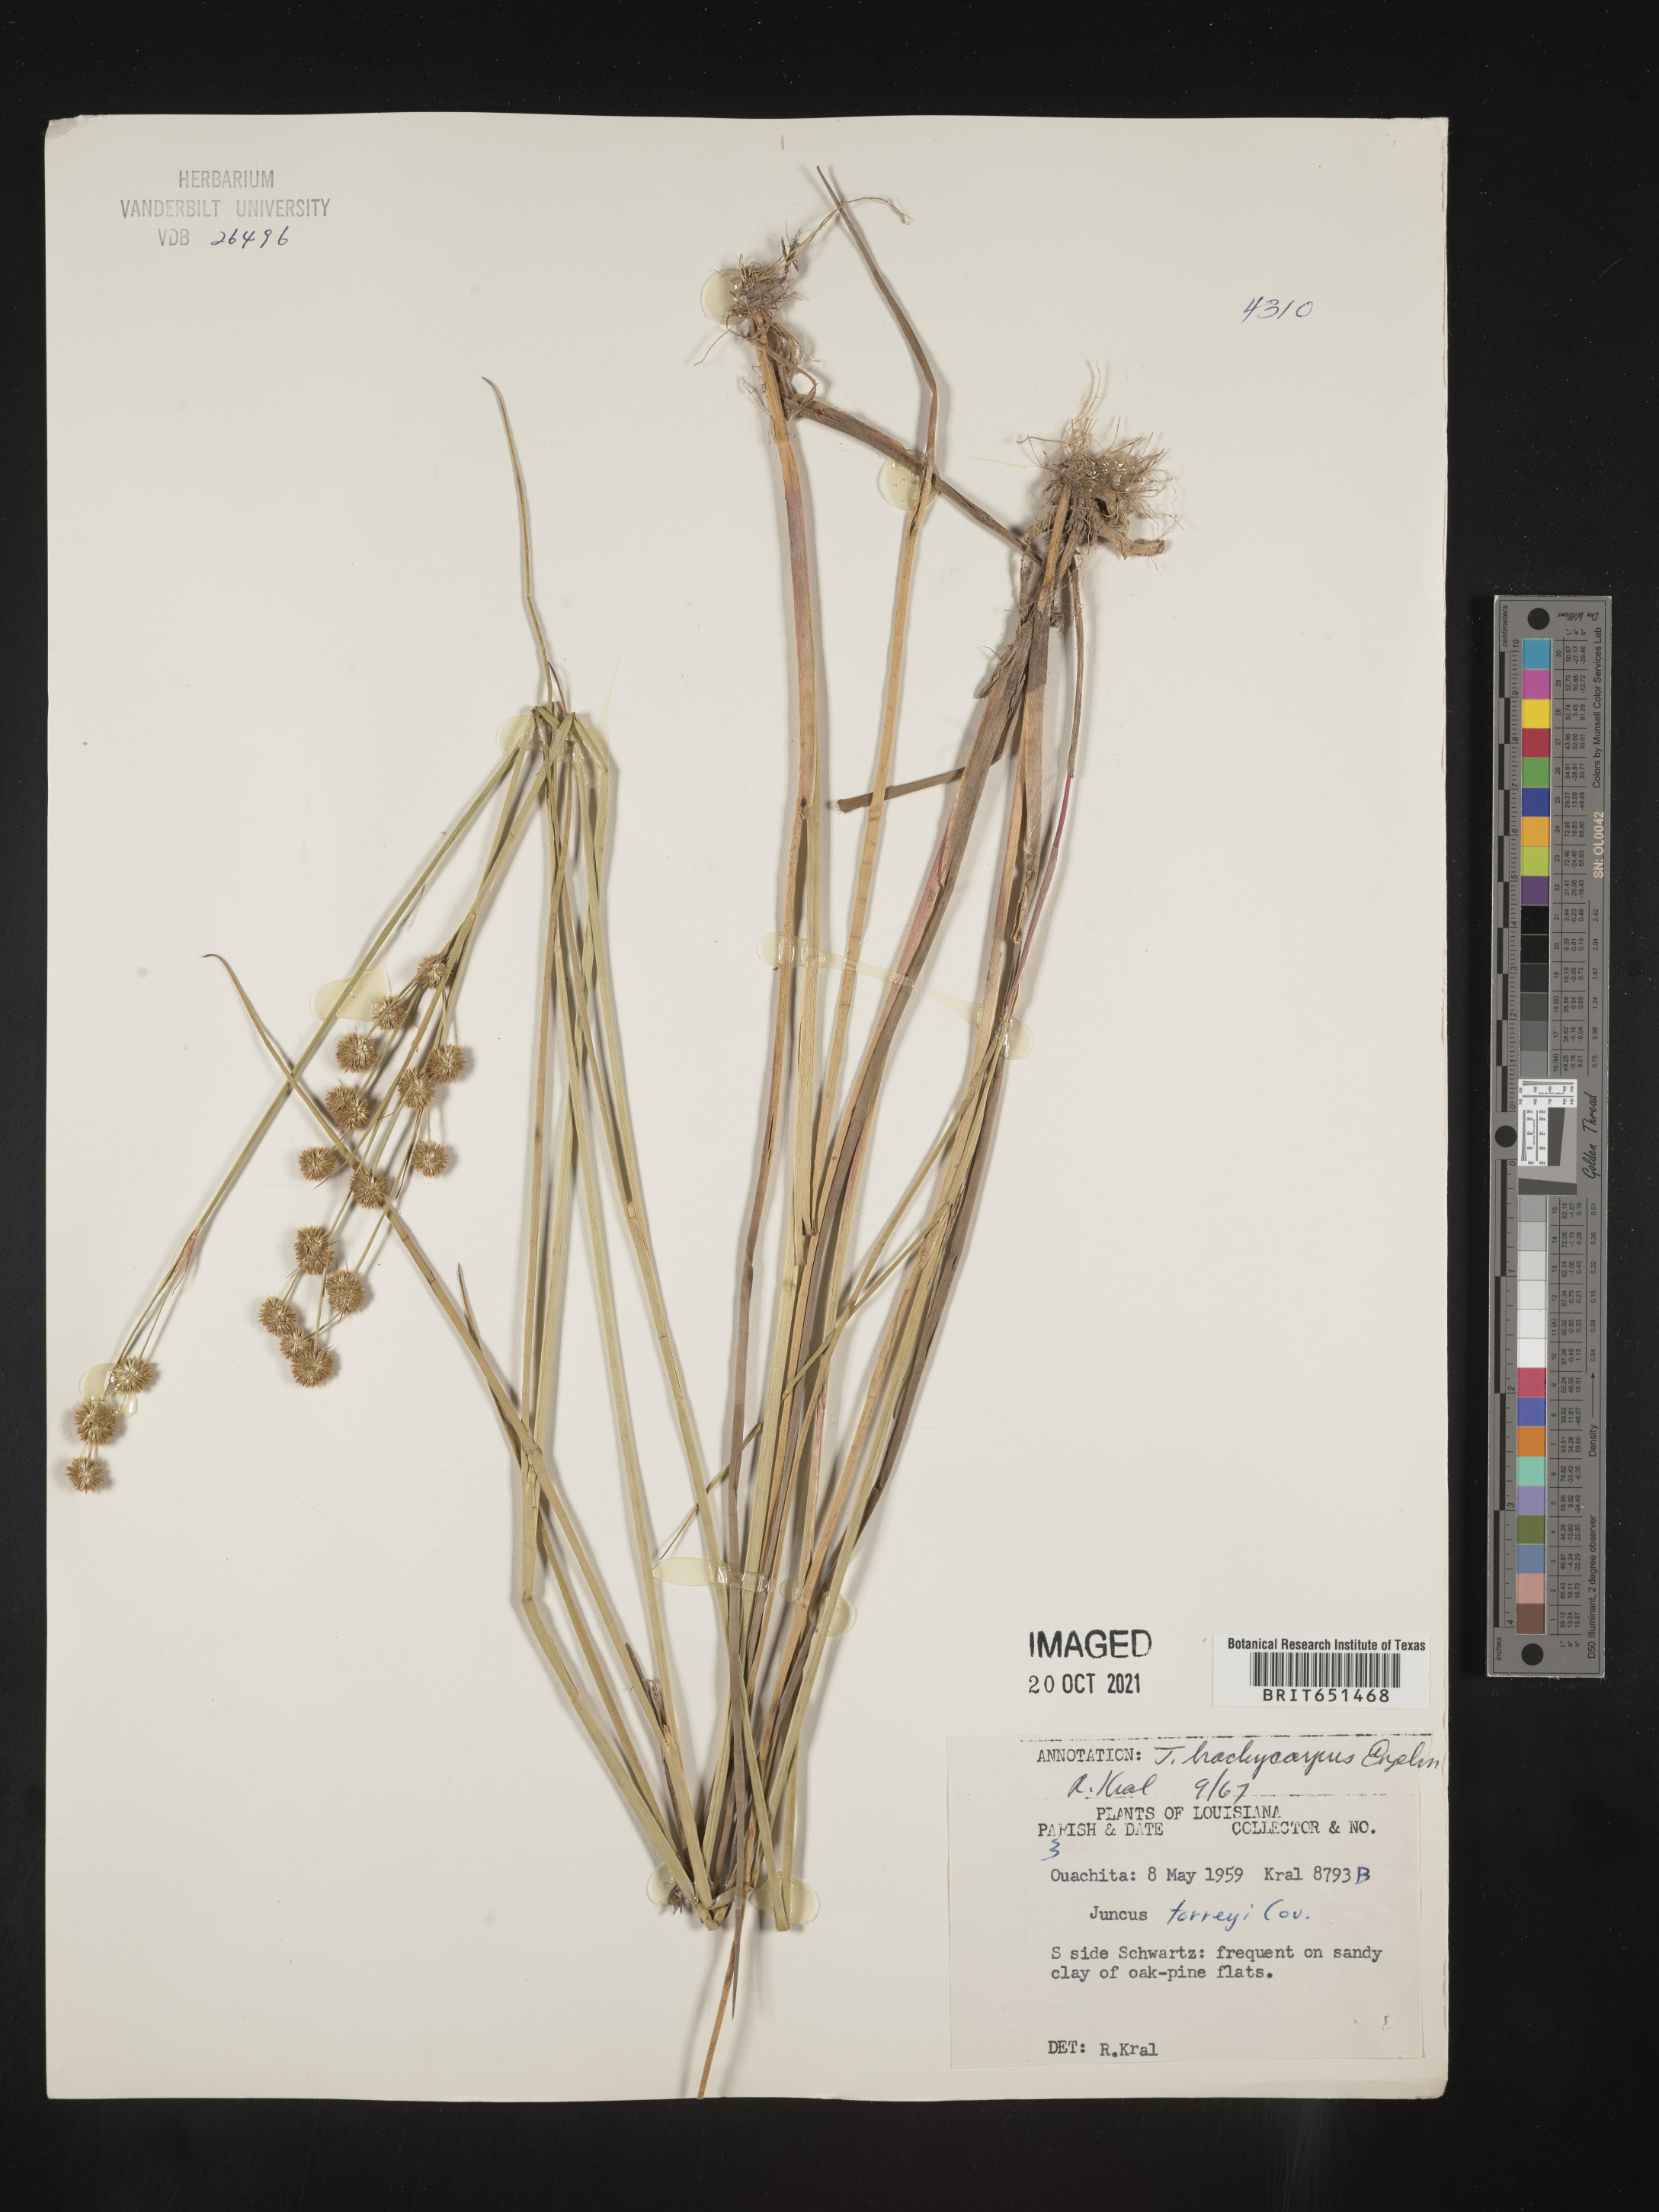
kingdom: Plantae
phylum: Tracheophyta
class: Liliopsida
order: Poales
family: Juncaceae
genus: Juncus
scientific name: Juncus brachycarpus
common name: Shore rush
